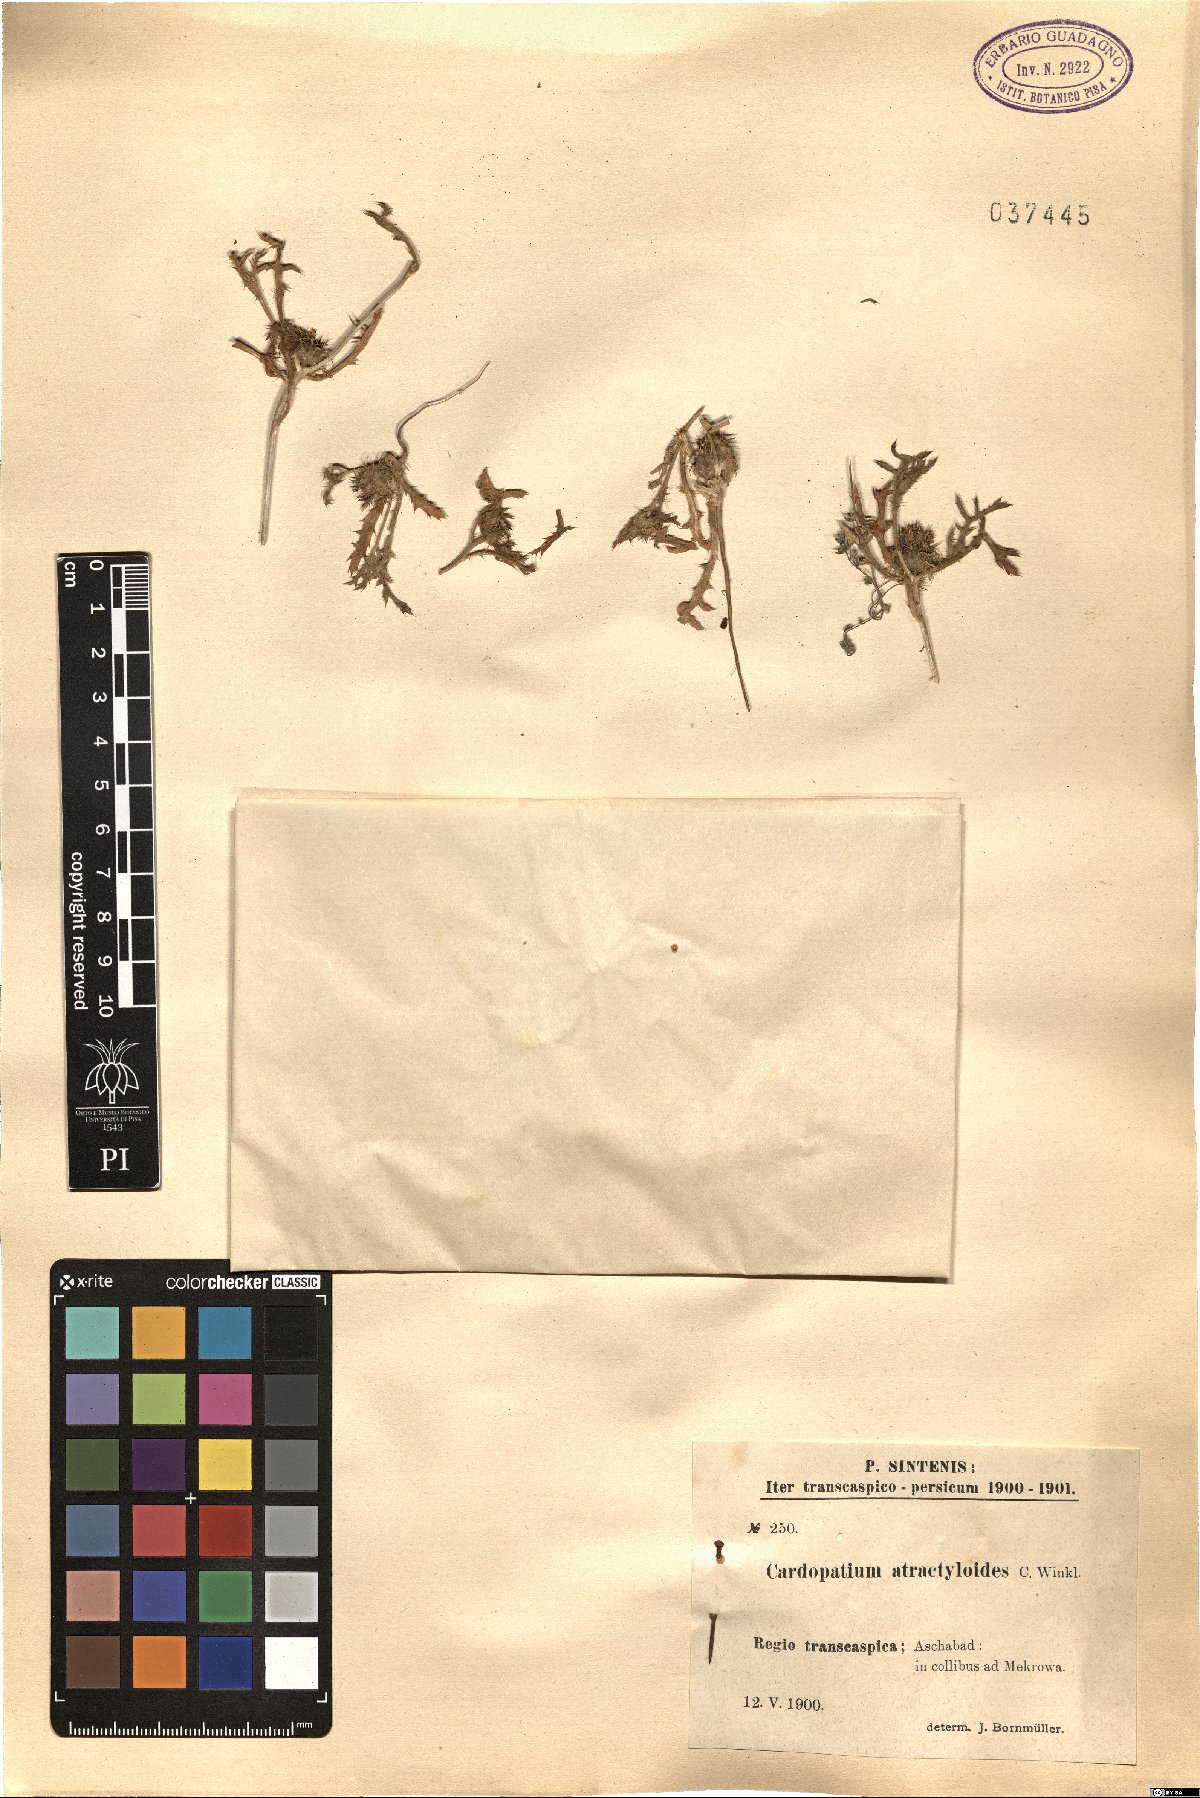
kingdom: Plantae
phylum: Tracheophyta
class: Magnoliopsida
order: Asterales
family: Asteraceae
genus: Cousiniopsis
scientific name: Cousiniopsis atractyloides
